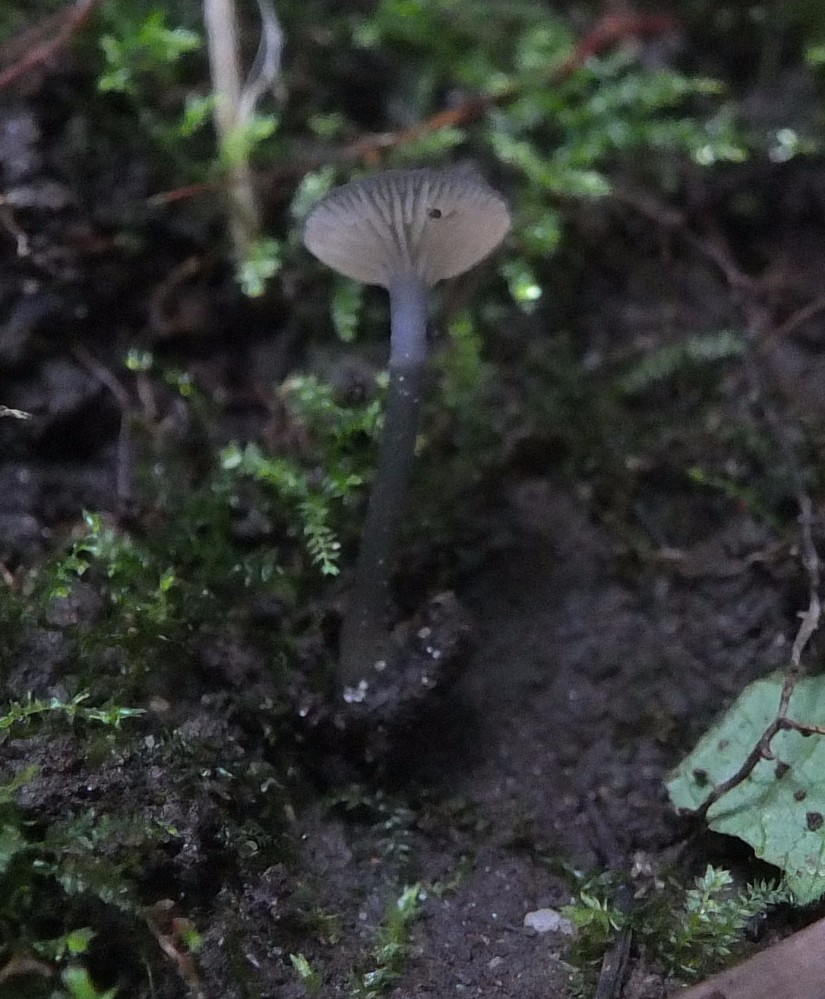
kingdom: Fungi
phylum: Basidiomycota
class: Agaricomycetes
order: Agaricales
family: Entolomataceae
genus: Entoloma
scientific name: Entoloma incarnatofuscescens
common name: tragt-rødblad
